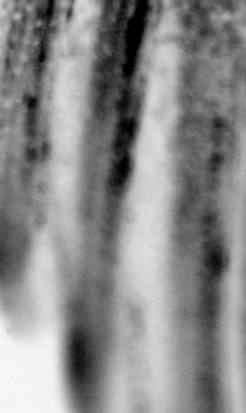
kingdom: Animalia
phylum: Chordata
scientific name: Chordata
